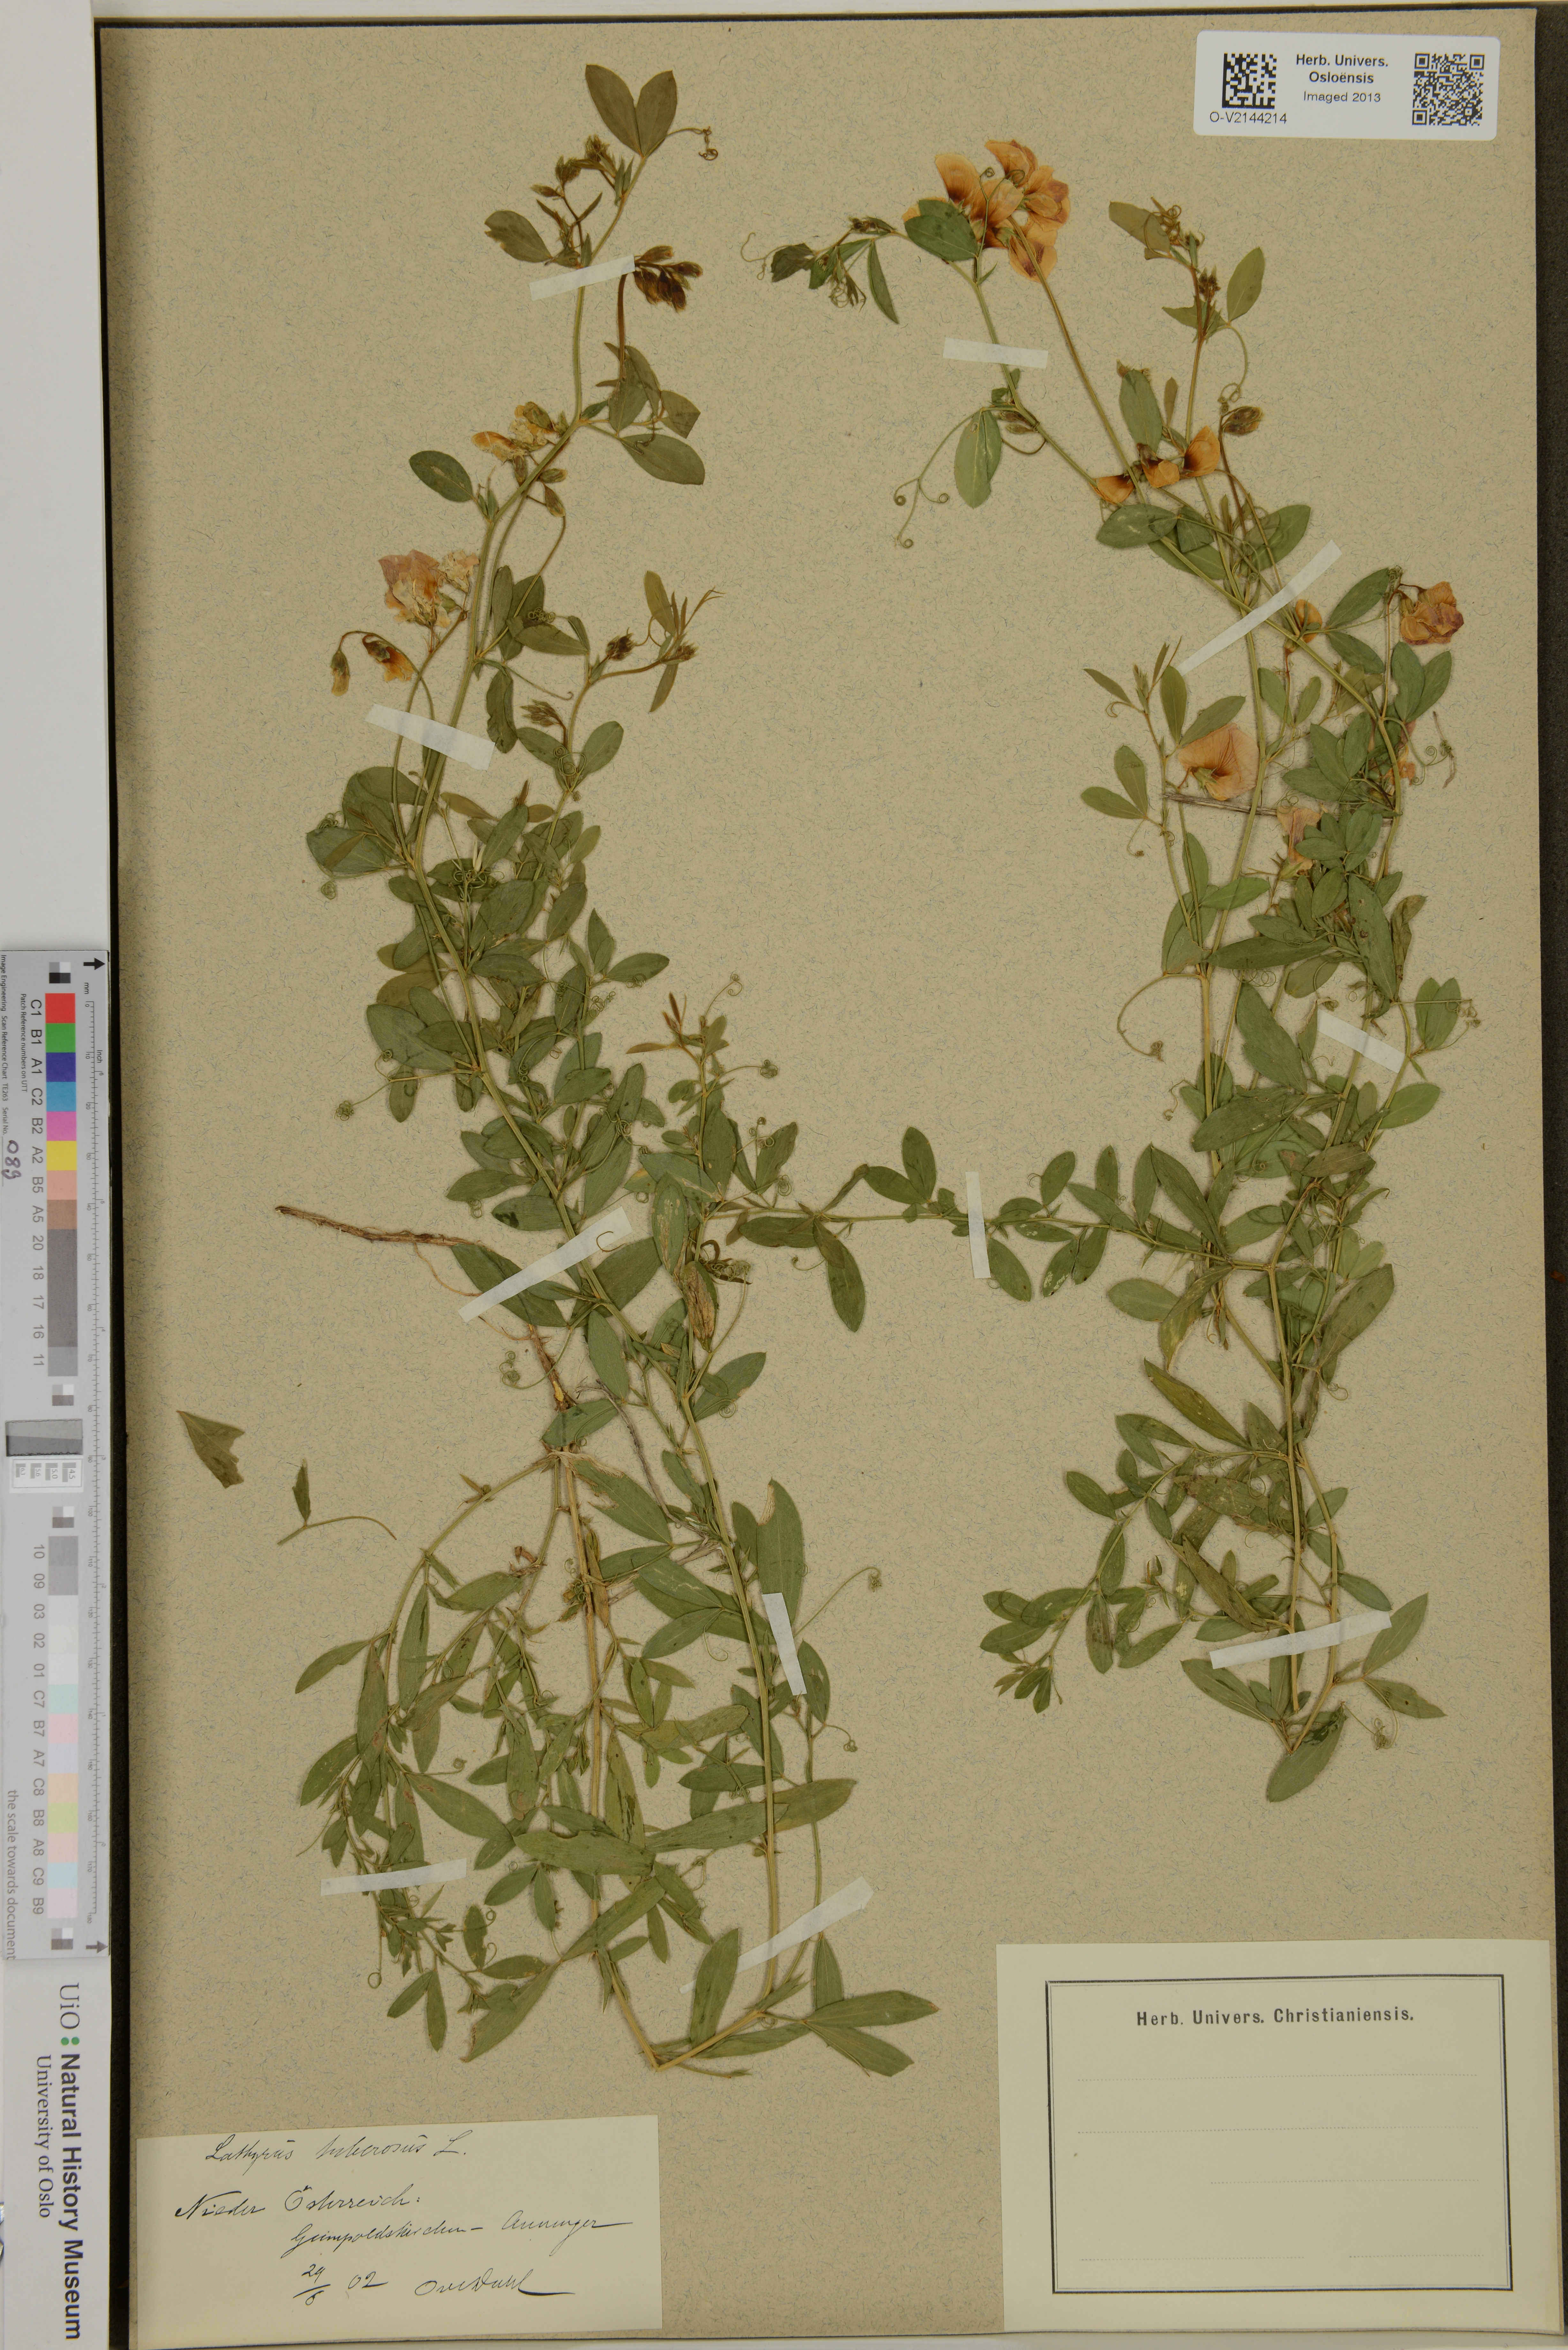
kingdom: Plantae
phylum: Tracheophyta
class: Magnoliopsida
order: Fabales
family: Fabaceae
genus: Lathyrus
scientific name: Lathyrus tuberosus
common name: Tuberous pea
